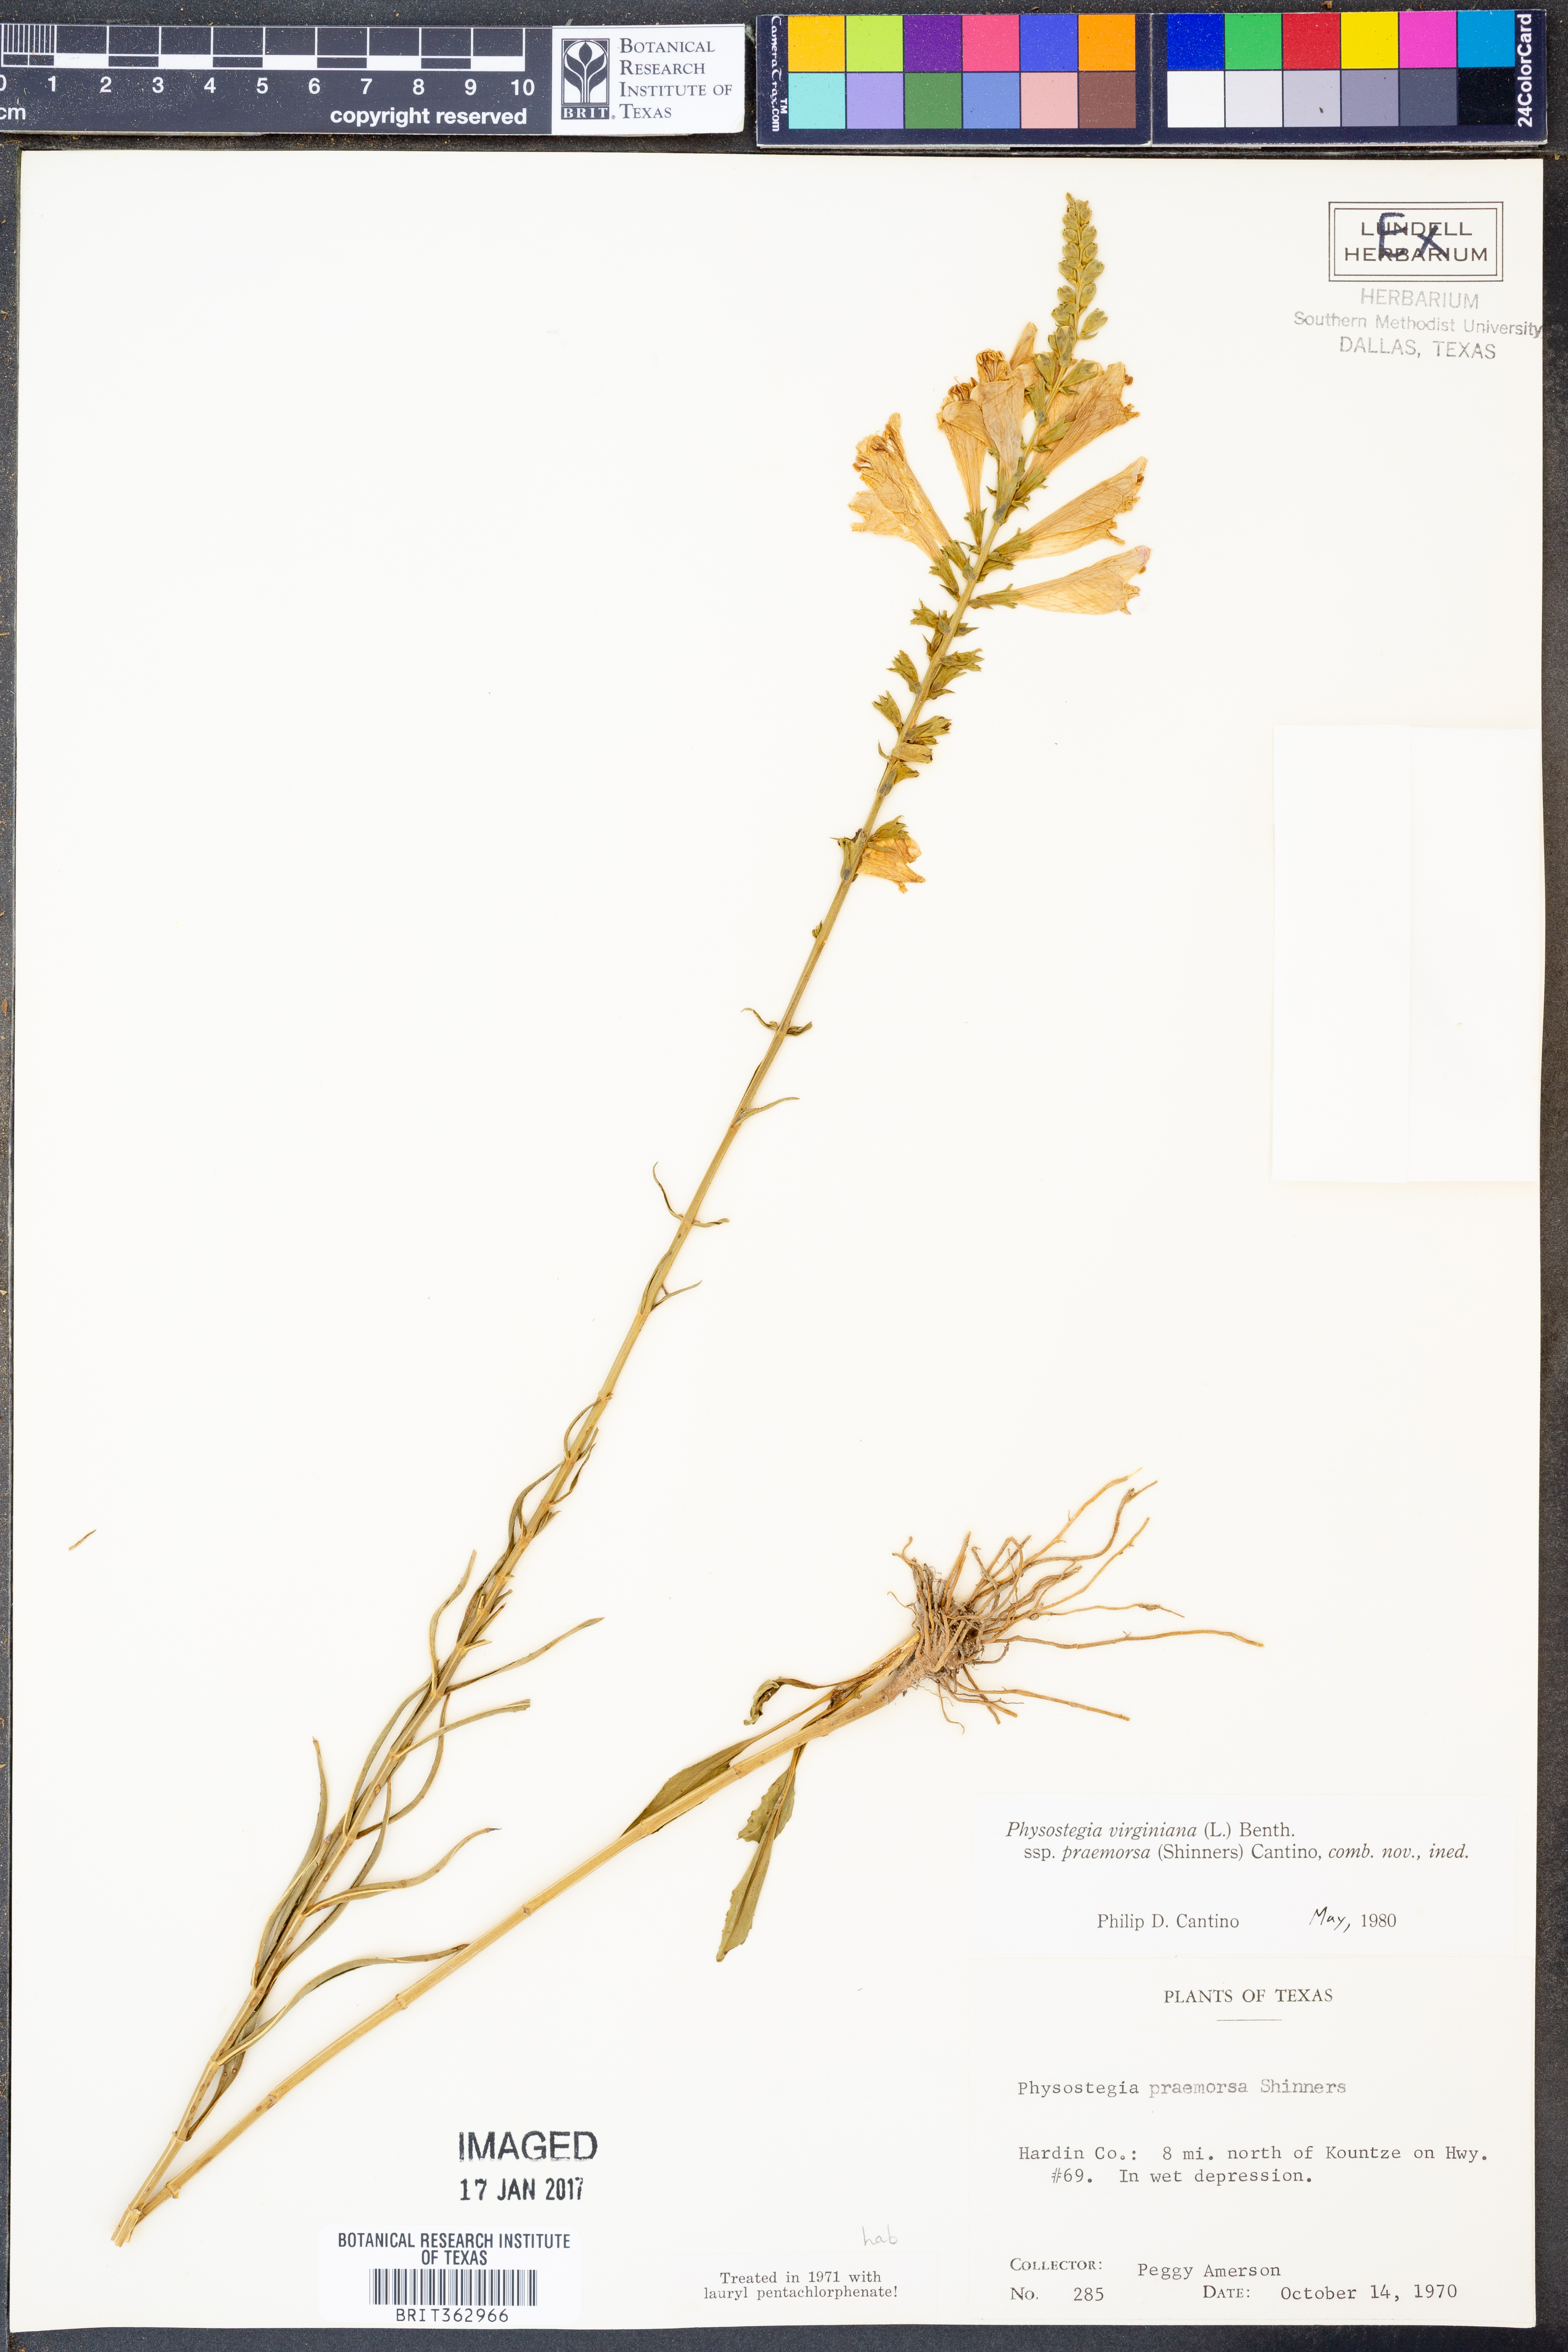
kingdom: Plantae
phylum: Tracheophyta
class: Magnoliopsida
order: Lamiales
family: Lamiaceae
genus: Physostegia
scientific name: Physostegia virginiana
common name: Obedient-plant
